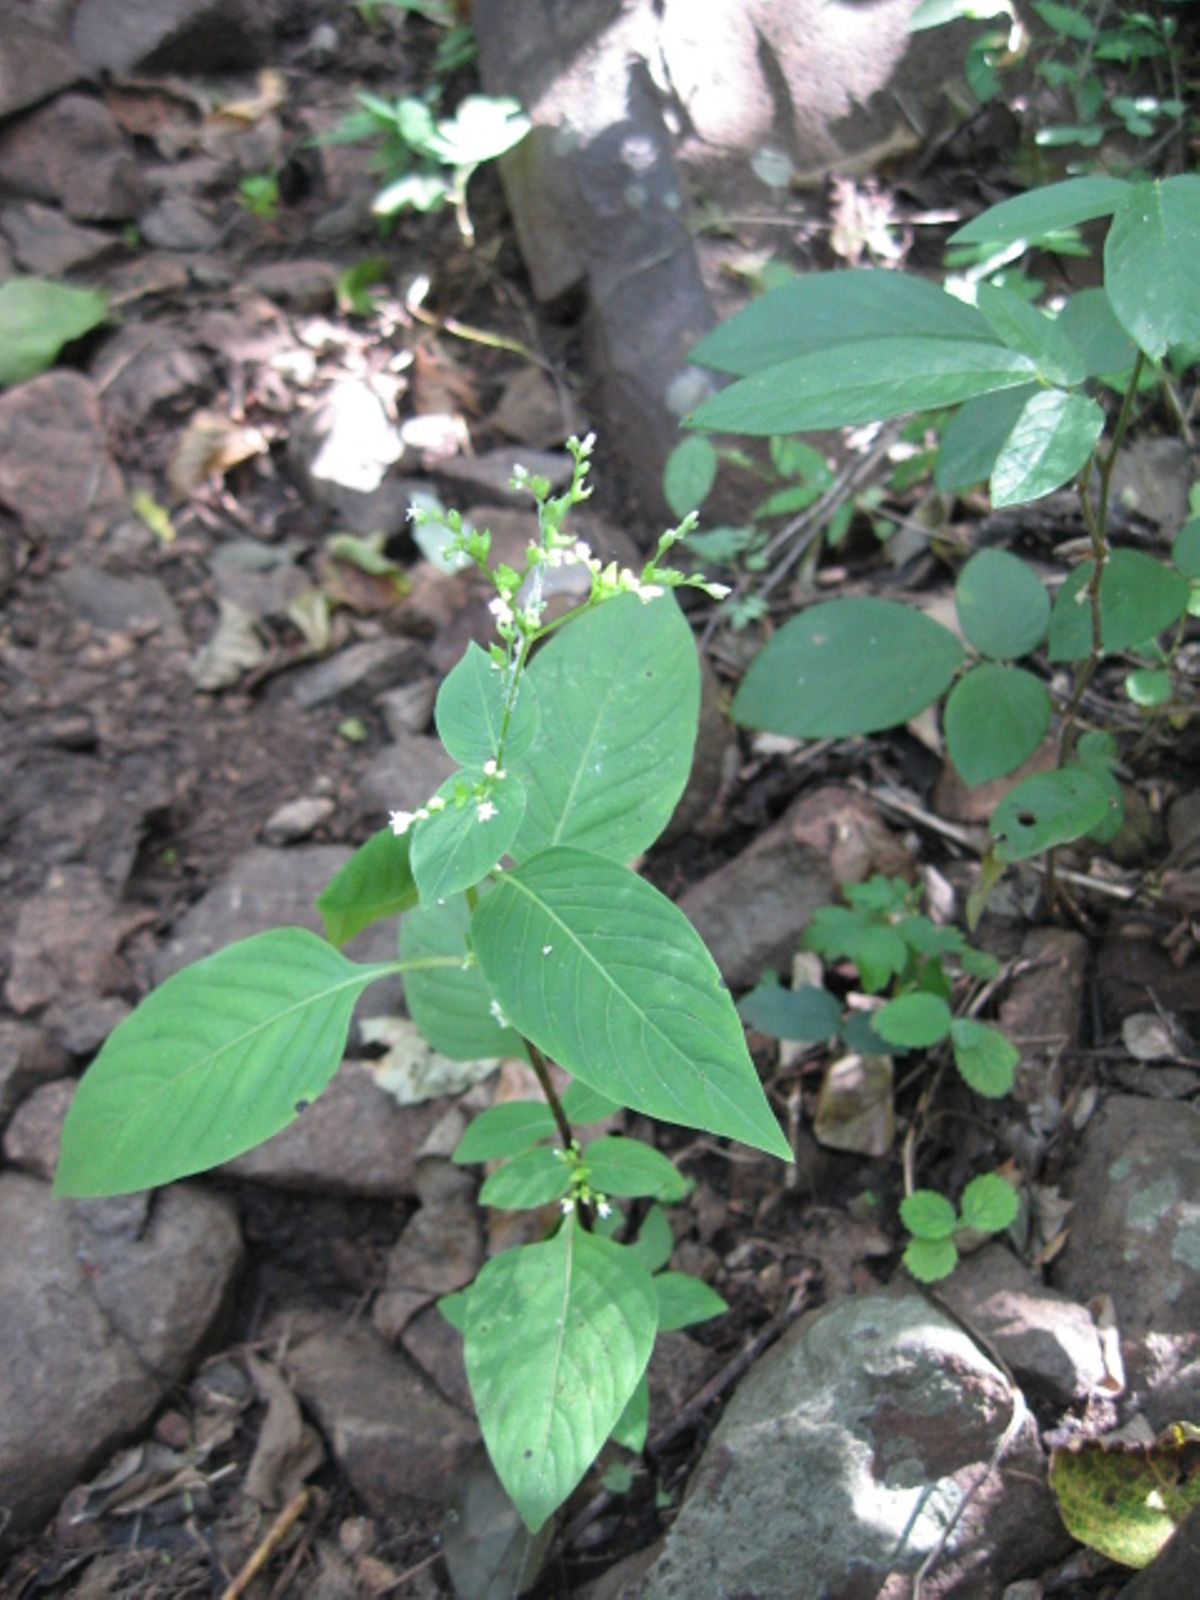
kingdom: Plantae
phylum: Tracheophyta
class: Magnoliopsida
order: Gentianales
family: Loganiaceae
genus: Mitreola
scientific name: Mitreola petiolata
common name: Lax hornpod
